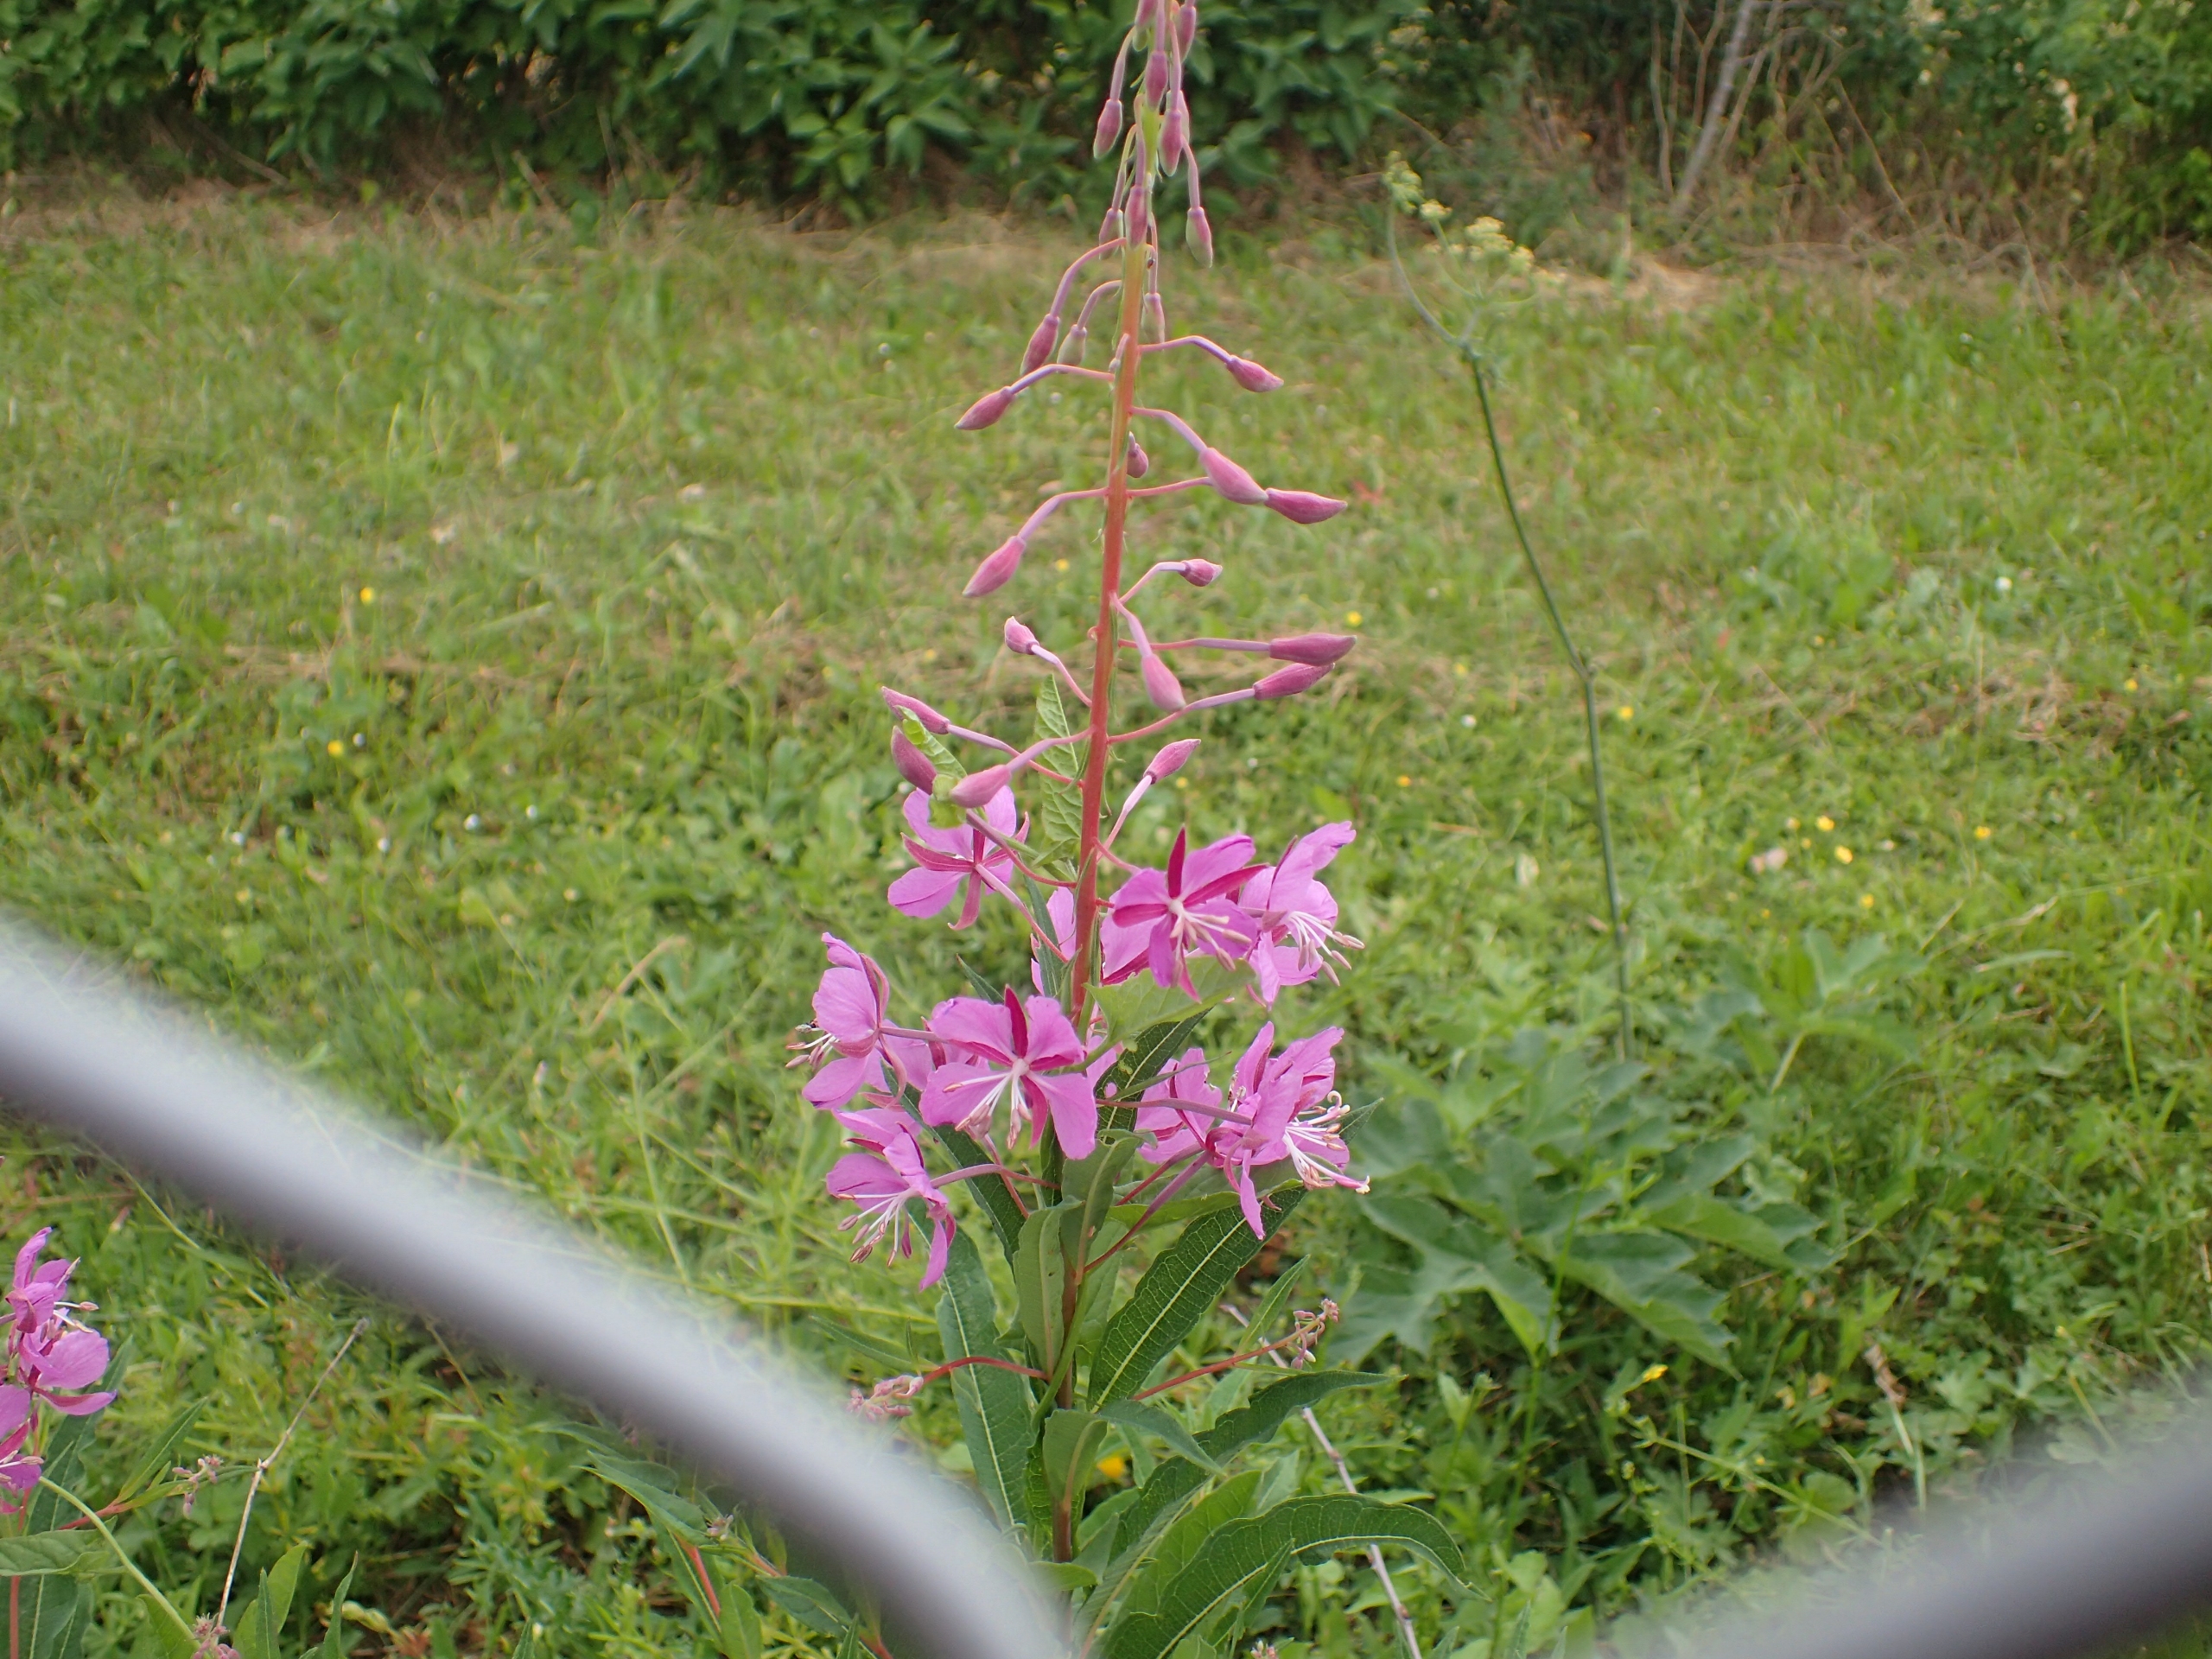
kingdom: Plantae
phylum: Tracheophyta
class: Magnoliopsida
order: Myrtales
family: Onagraceae
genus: Chamaenerion
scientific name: Chamaenerion angustifolium
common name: Gederams
